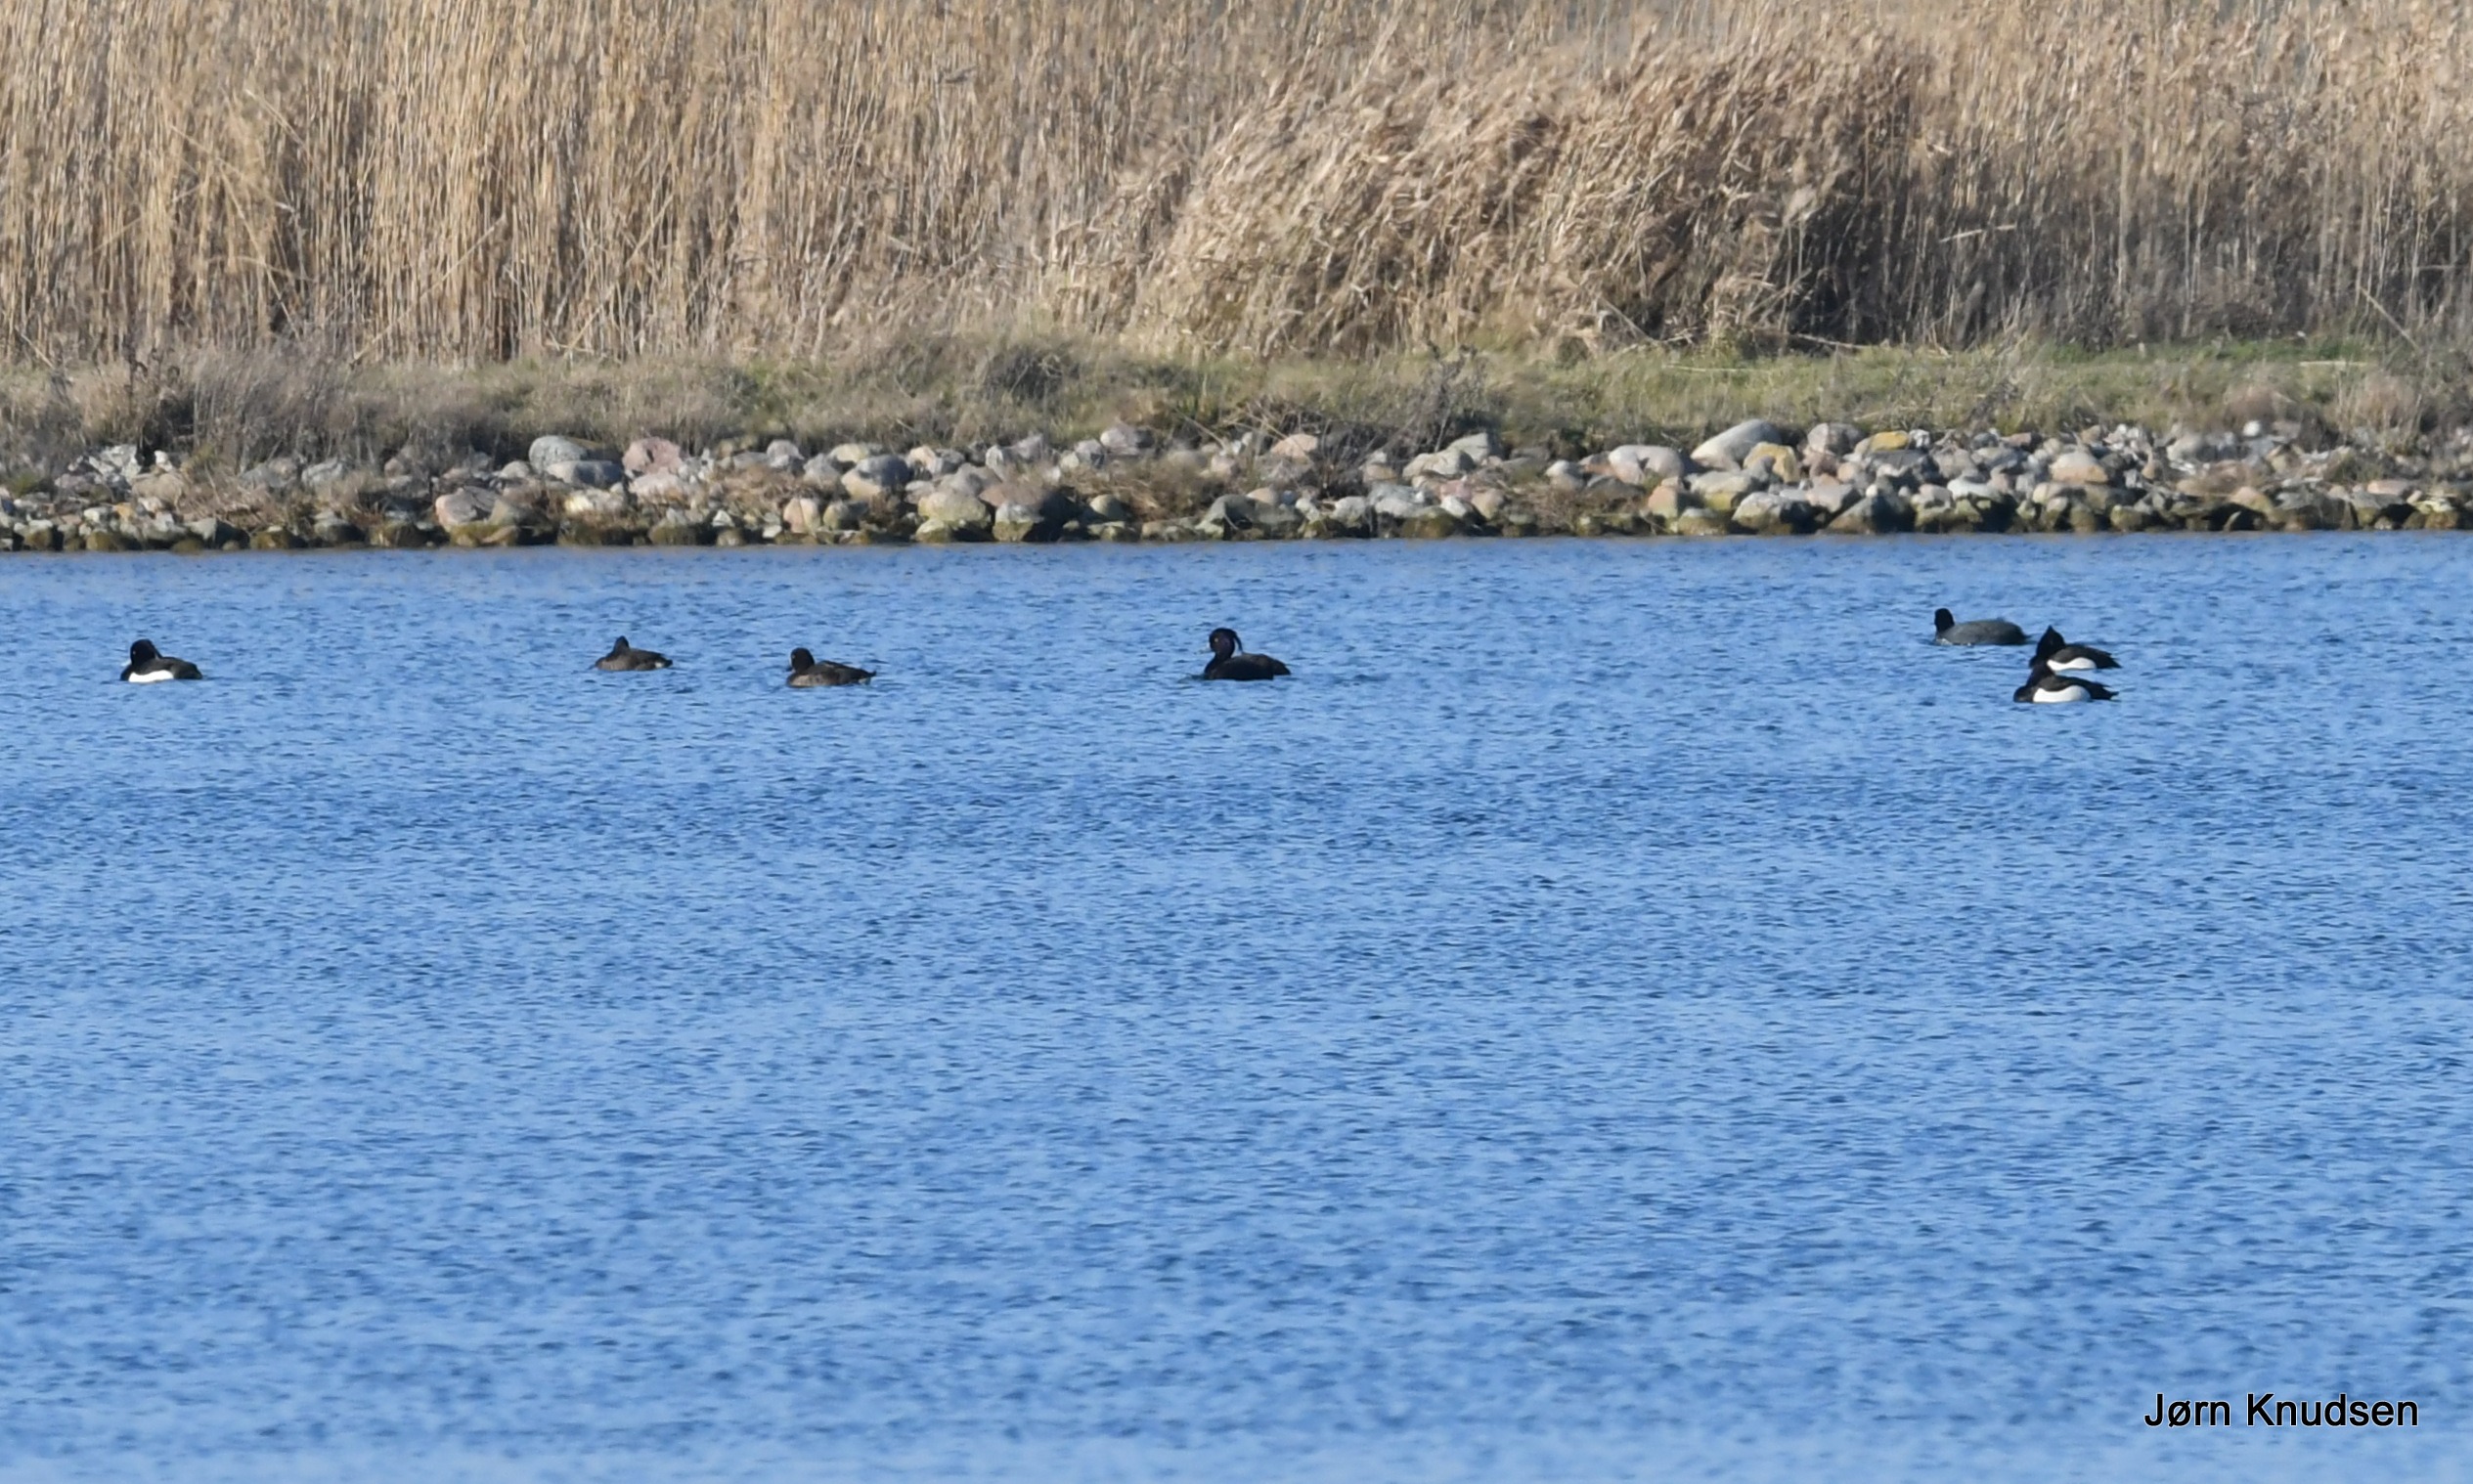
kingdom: Animalia
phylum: Chordata
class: Aves
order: Anseriformes
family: Anatidae
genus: Aythya
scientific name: Aythya fuligula
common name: Troldand
